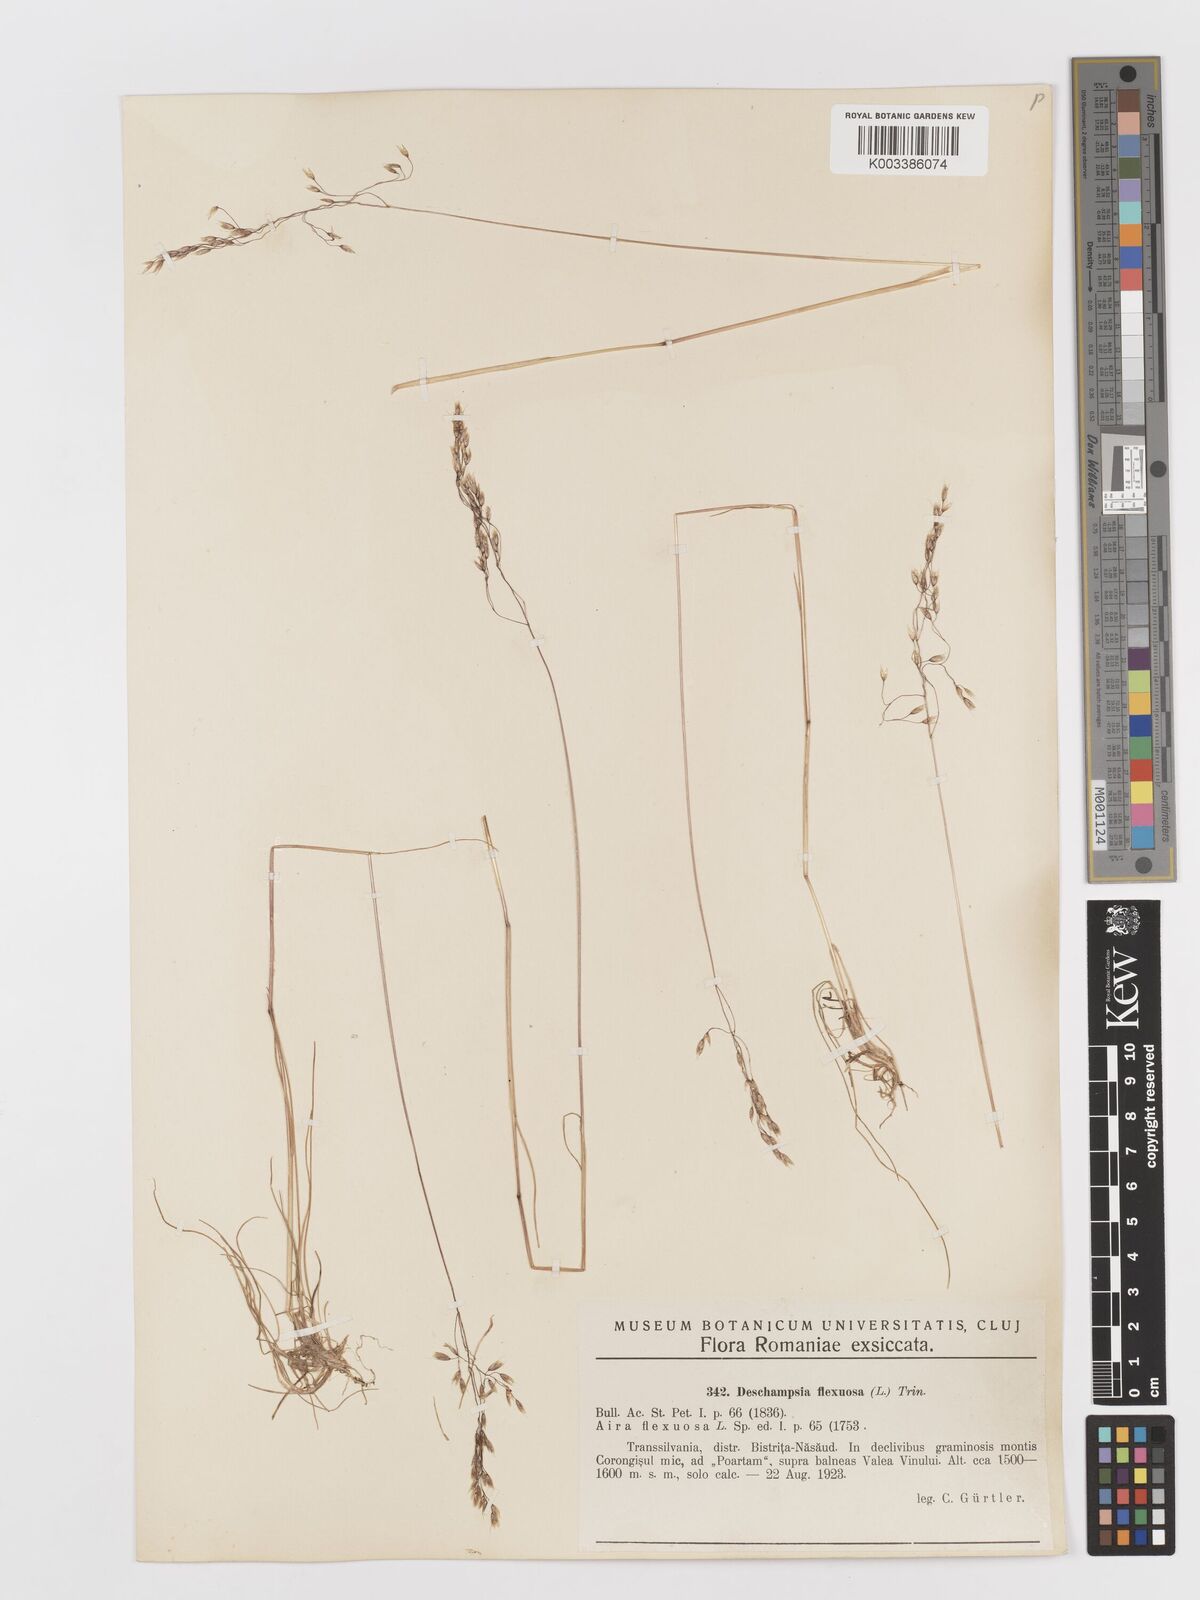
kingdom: Plantae
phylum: Tracheophyta
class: Liliopsida
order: Poales
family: Poaceae
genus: Avenella
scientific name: Avenella flexuosa
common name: Wavy hairgrass
